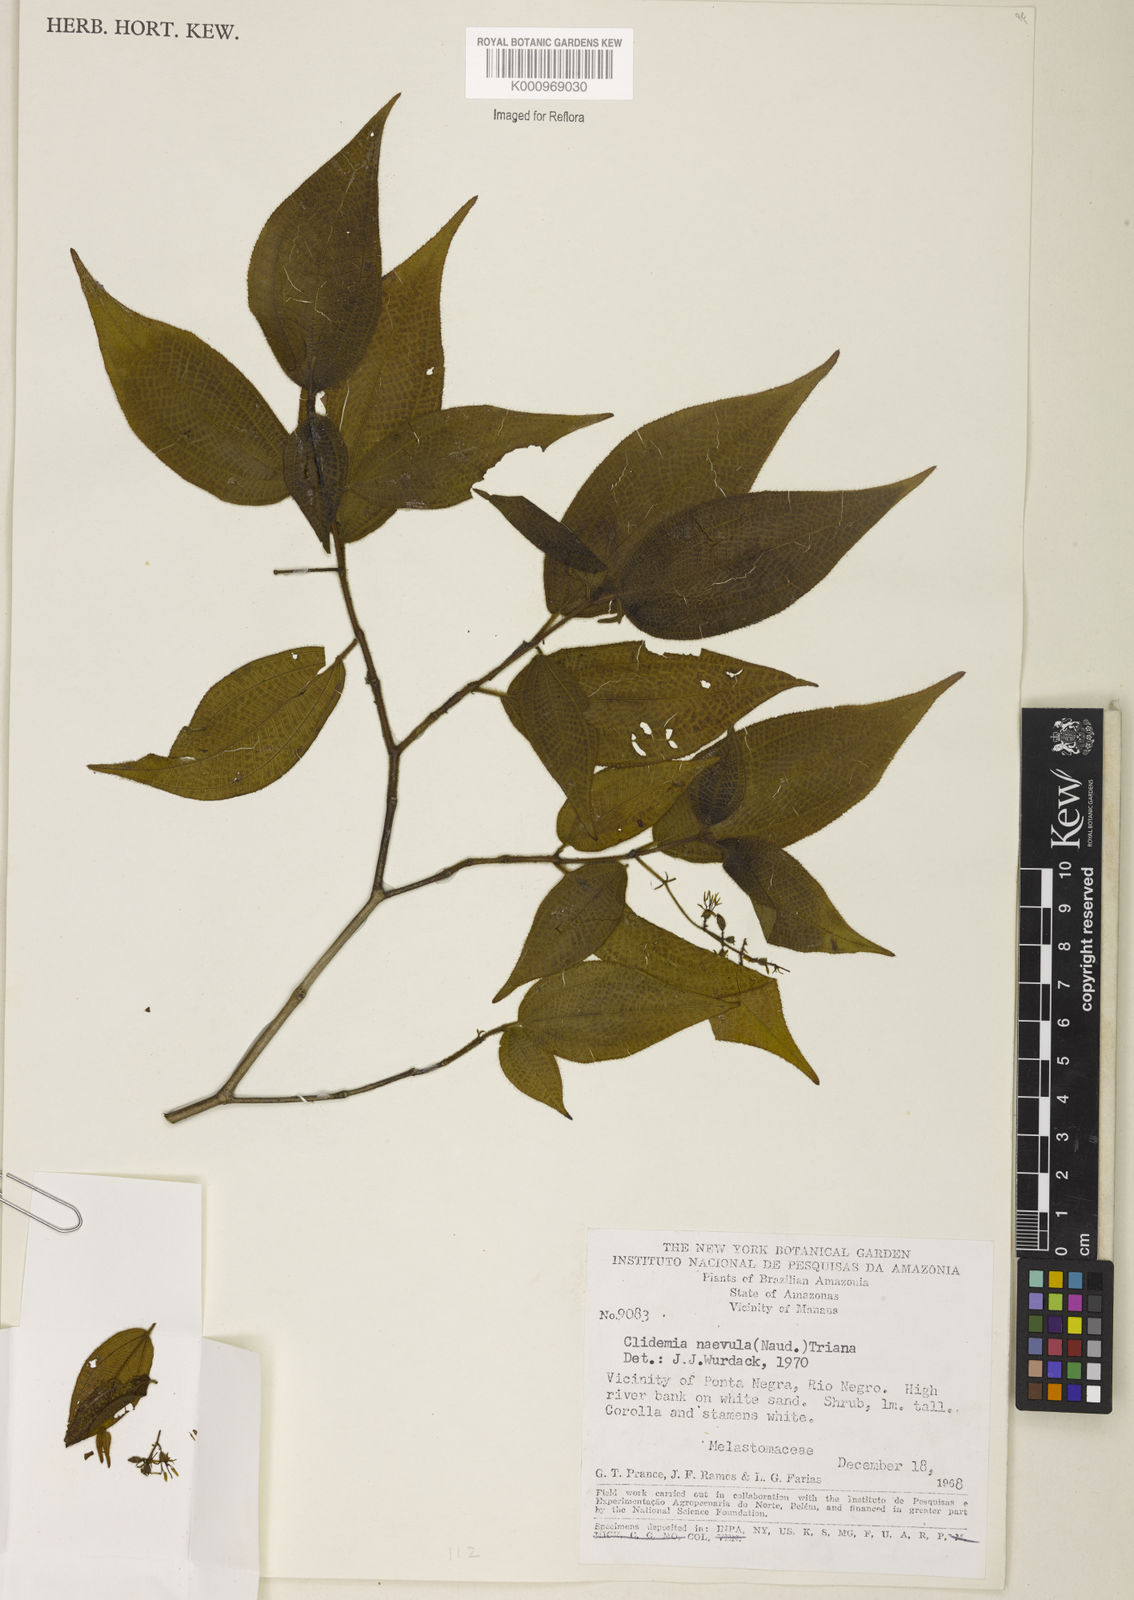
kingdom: Plantae
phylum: Tracheophyta
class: Magnoliopsida
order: Myrtales
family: Melastomataceae
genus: Miconia
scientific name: Miconia heteroclita
